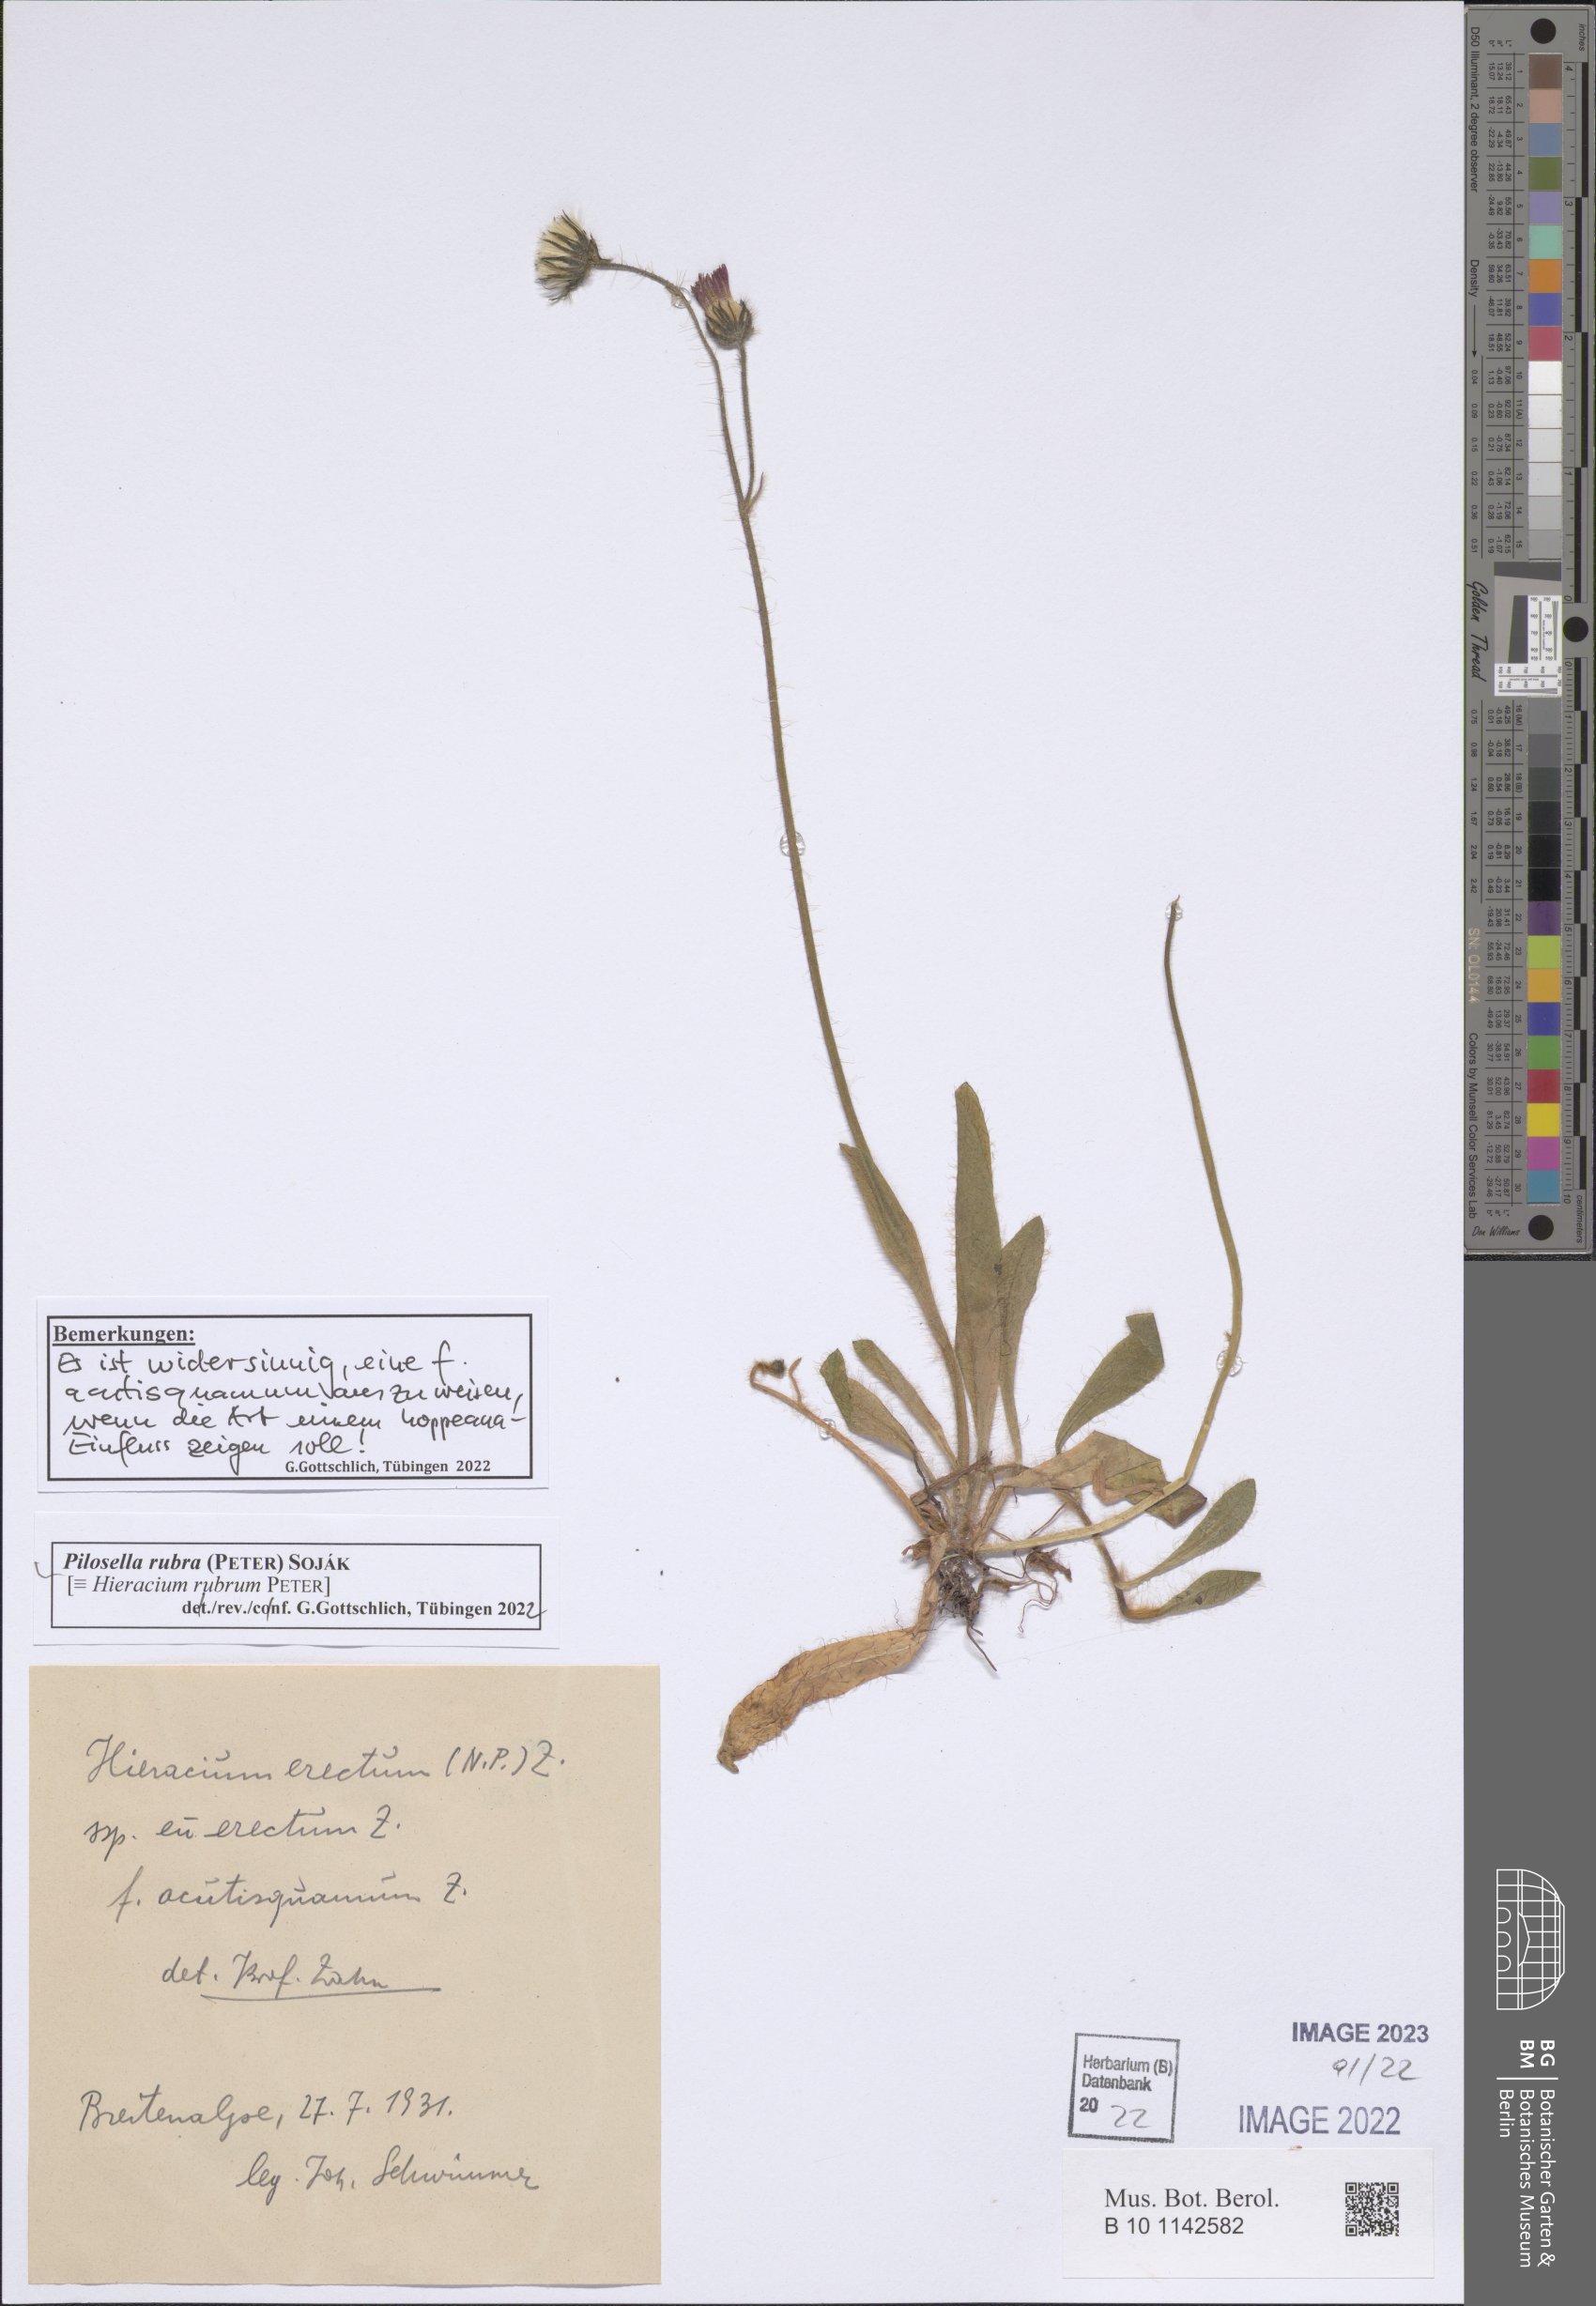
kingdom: Plantae
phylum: Tracheophyta
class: Magnoliopsida
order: Asterales
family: Asteraceae
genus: Pilosella
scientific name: Pilosella rubra
